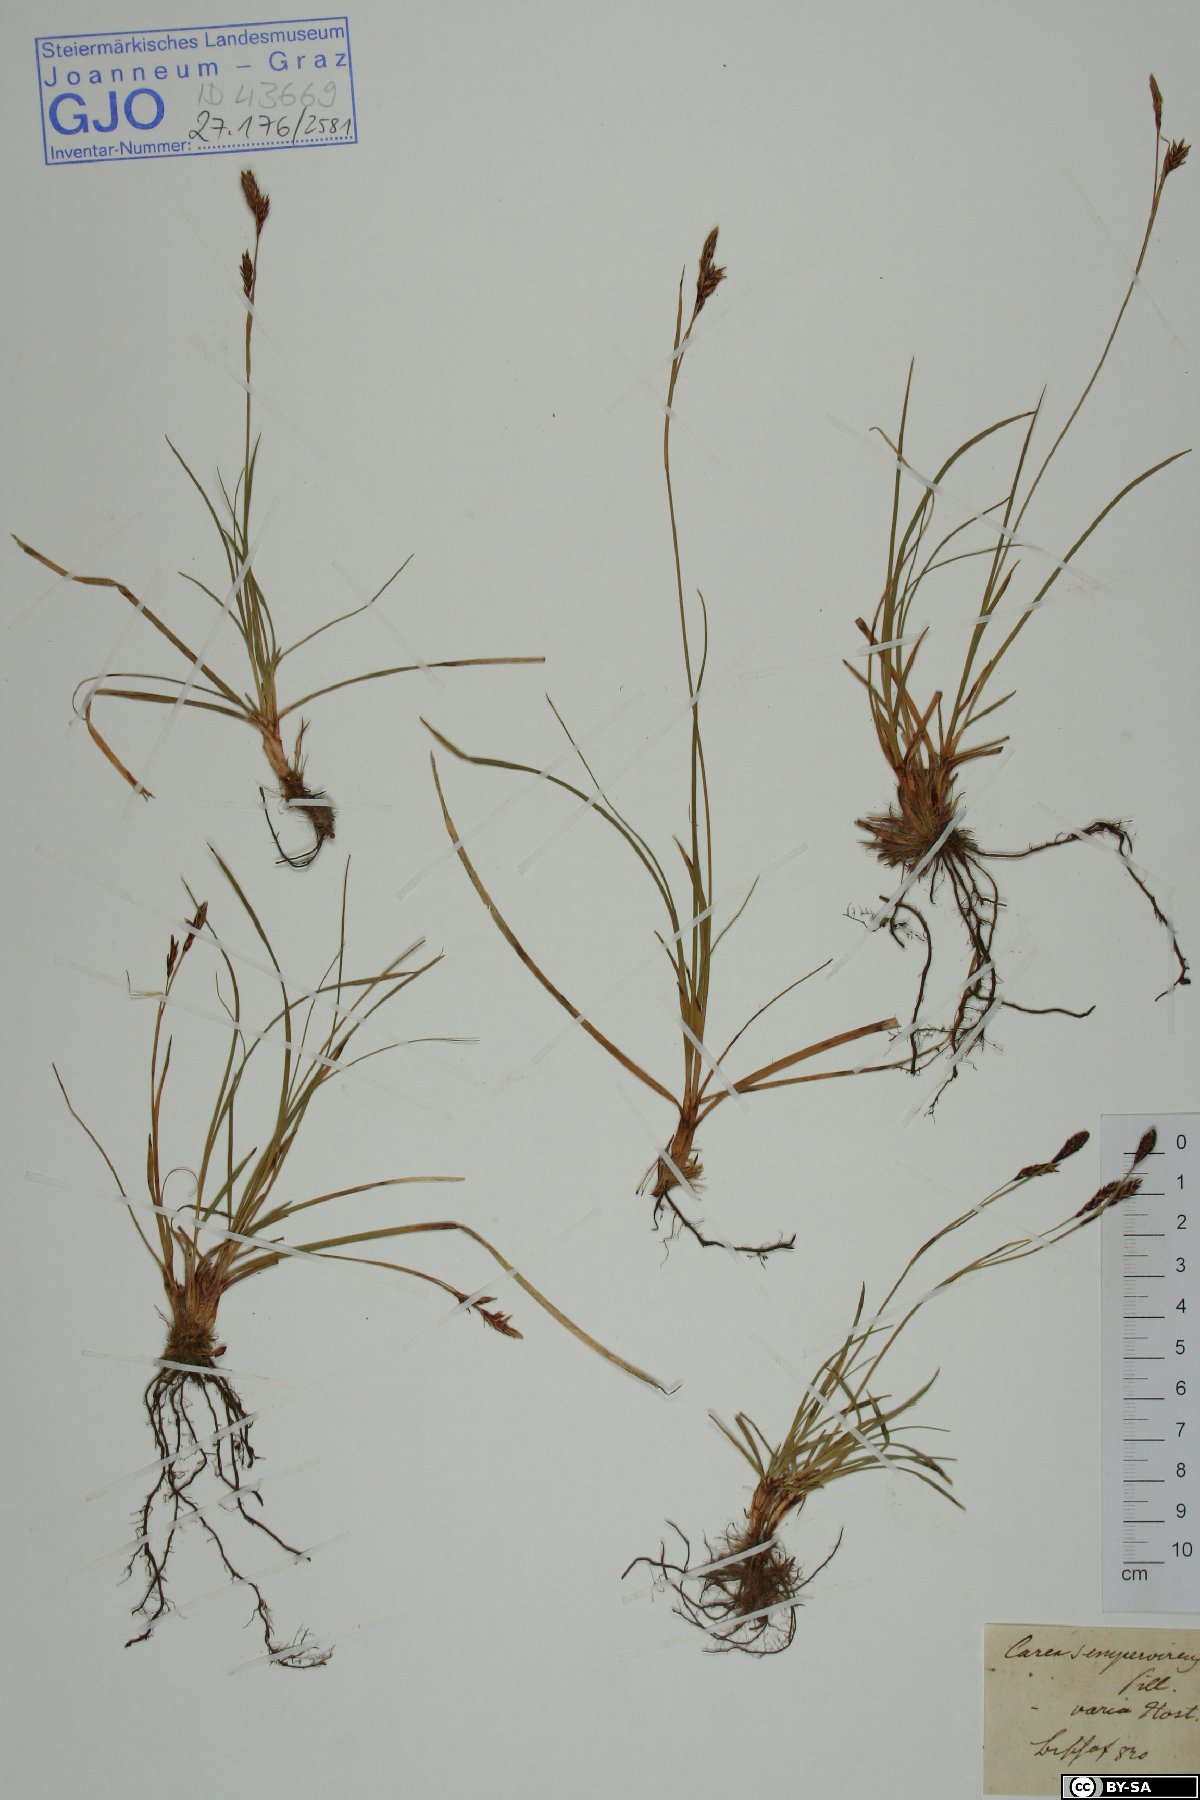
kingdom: Plantae
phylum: Tracheophyta
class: Liliopsida
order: Poales
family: Cyperaceae
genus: Carex
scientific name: Carex sempervirens
